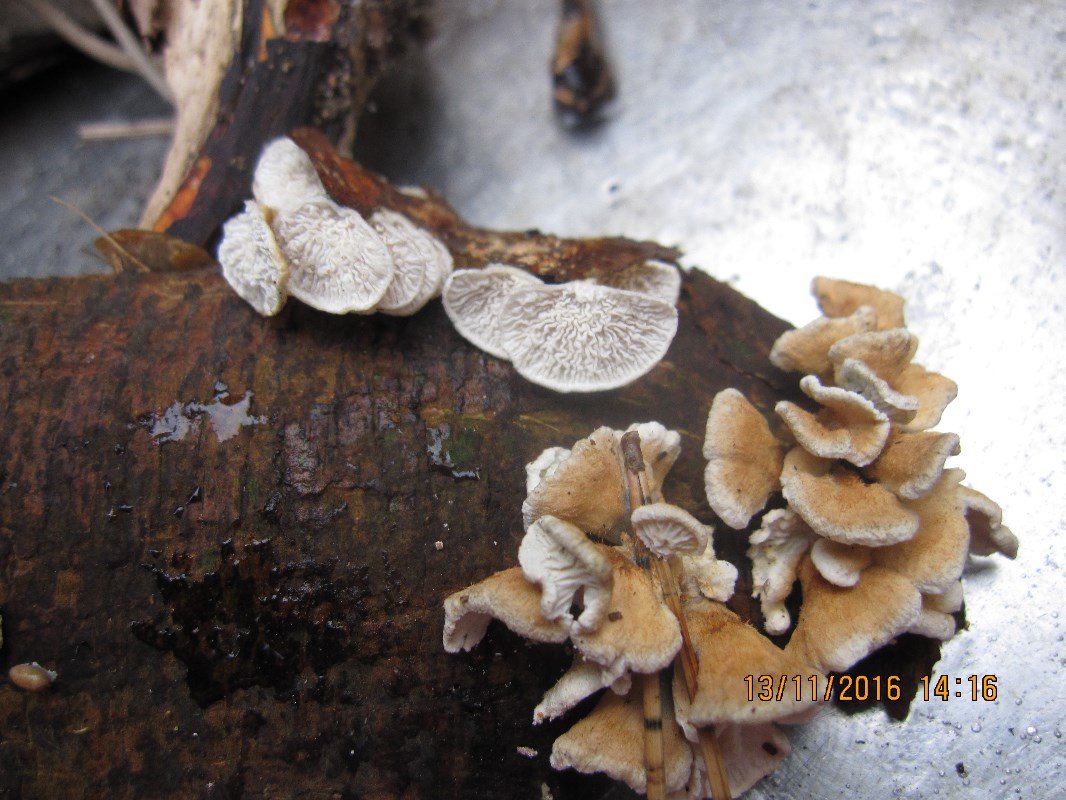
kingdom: Fungi
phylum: Basidiomycota
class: Agaricomycetes
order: Amylocorticiales
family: Amylocorticiaceae
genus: Plicaturopsis
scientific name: Plicaturopsis crispa
